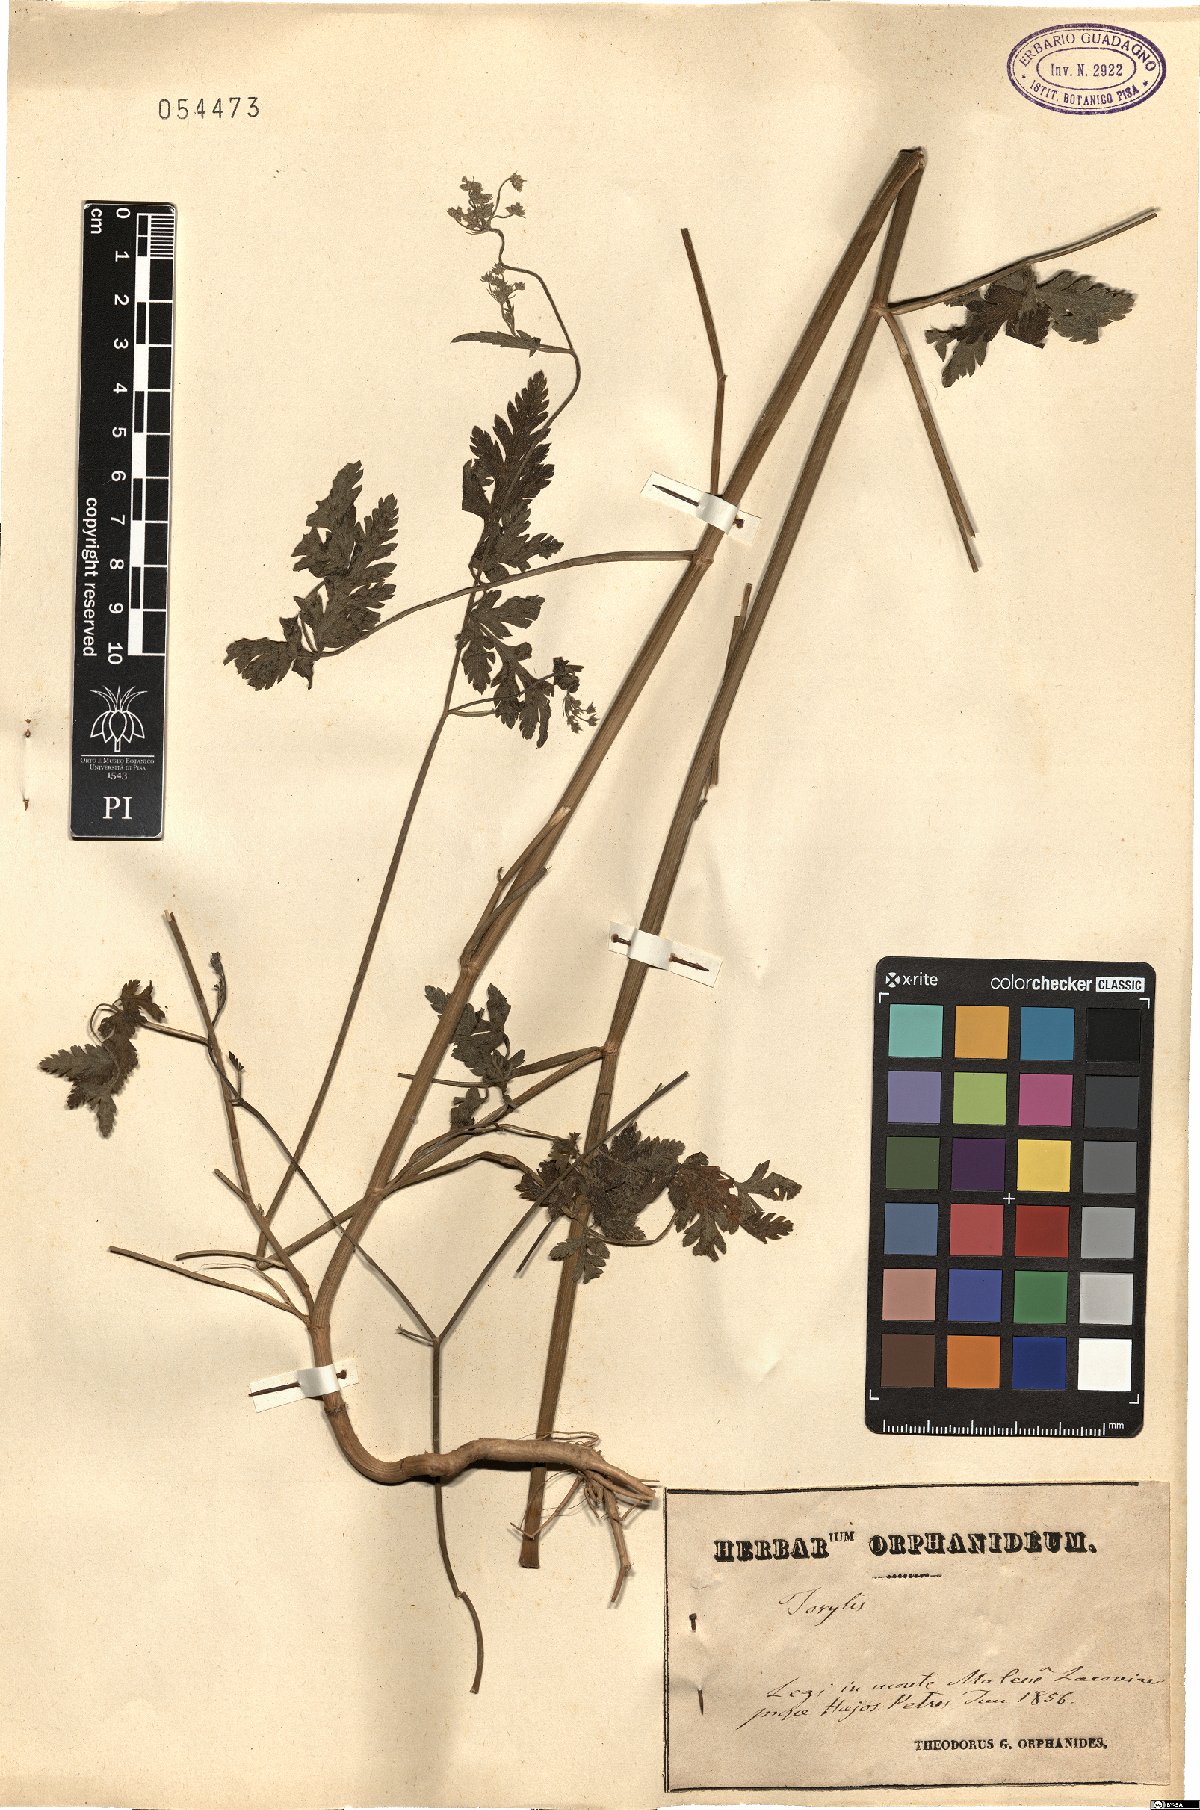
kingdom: Plantae
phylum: Tracheophyta
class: Magnoliopsida
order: Apiales
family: Apiaceae
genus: Torilis
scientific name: Torilis
